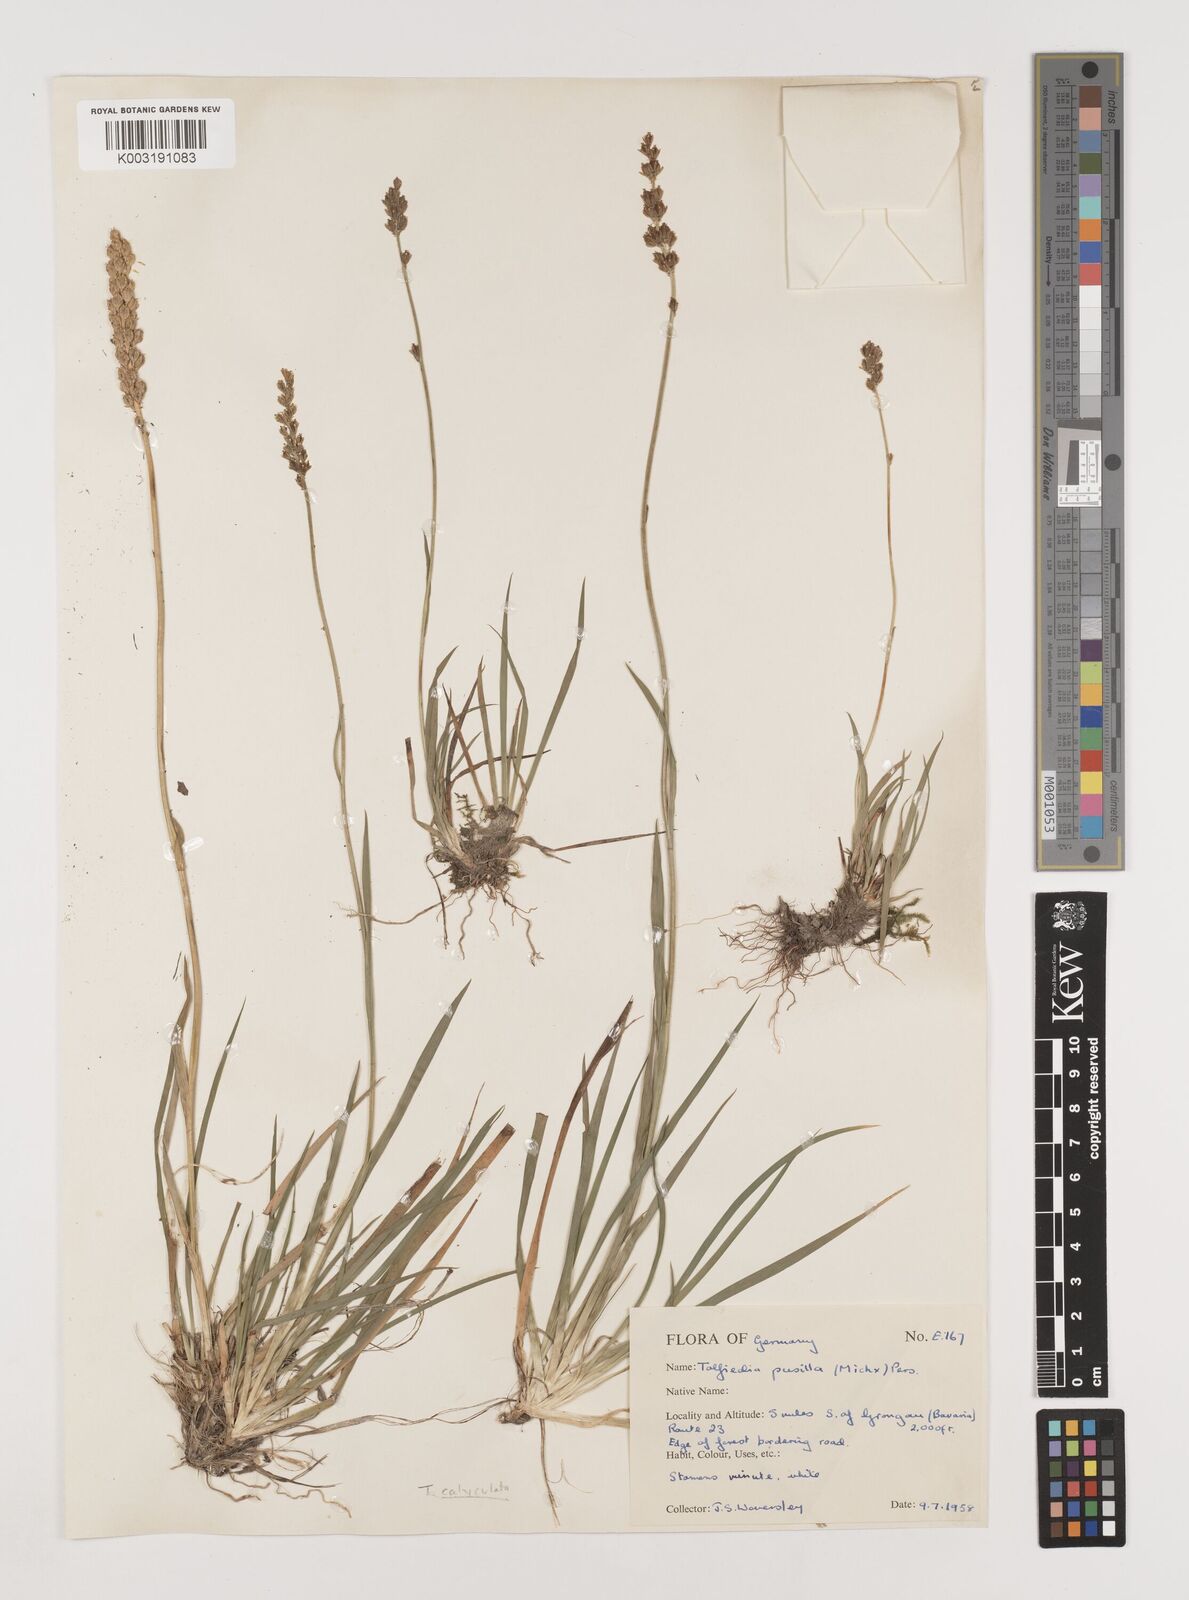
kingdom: Plantae
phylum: Tracheophyta
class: Liliopsida
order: Alismatales
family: Tofieldiaceae
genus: Tofieldia
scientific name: Tofieldia pusilla
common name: Scottish false asphodel
